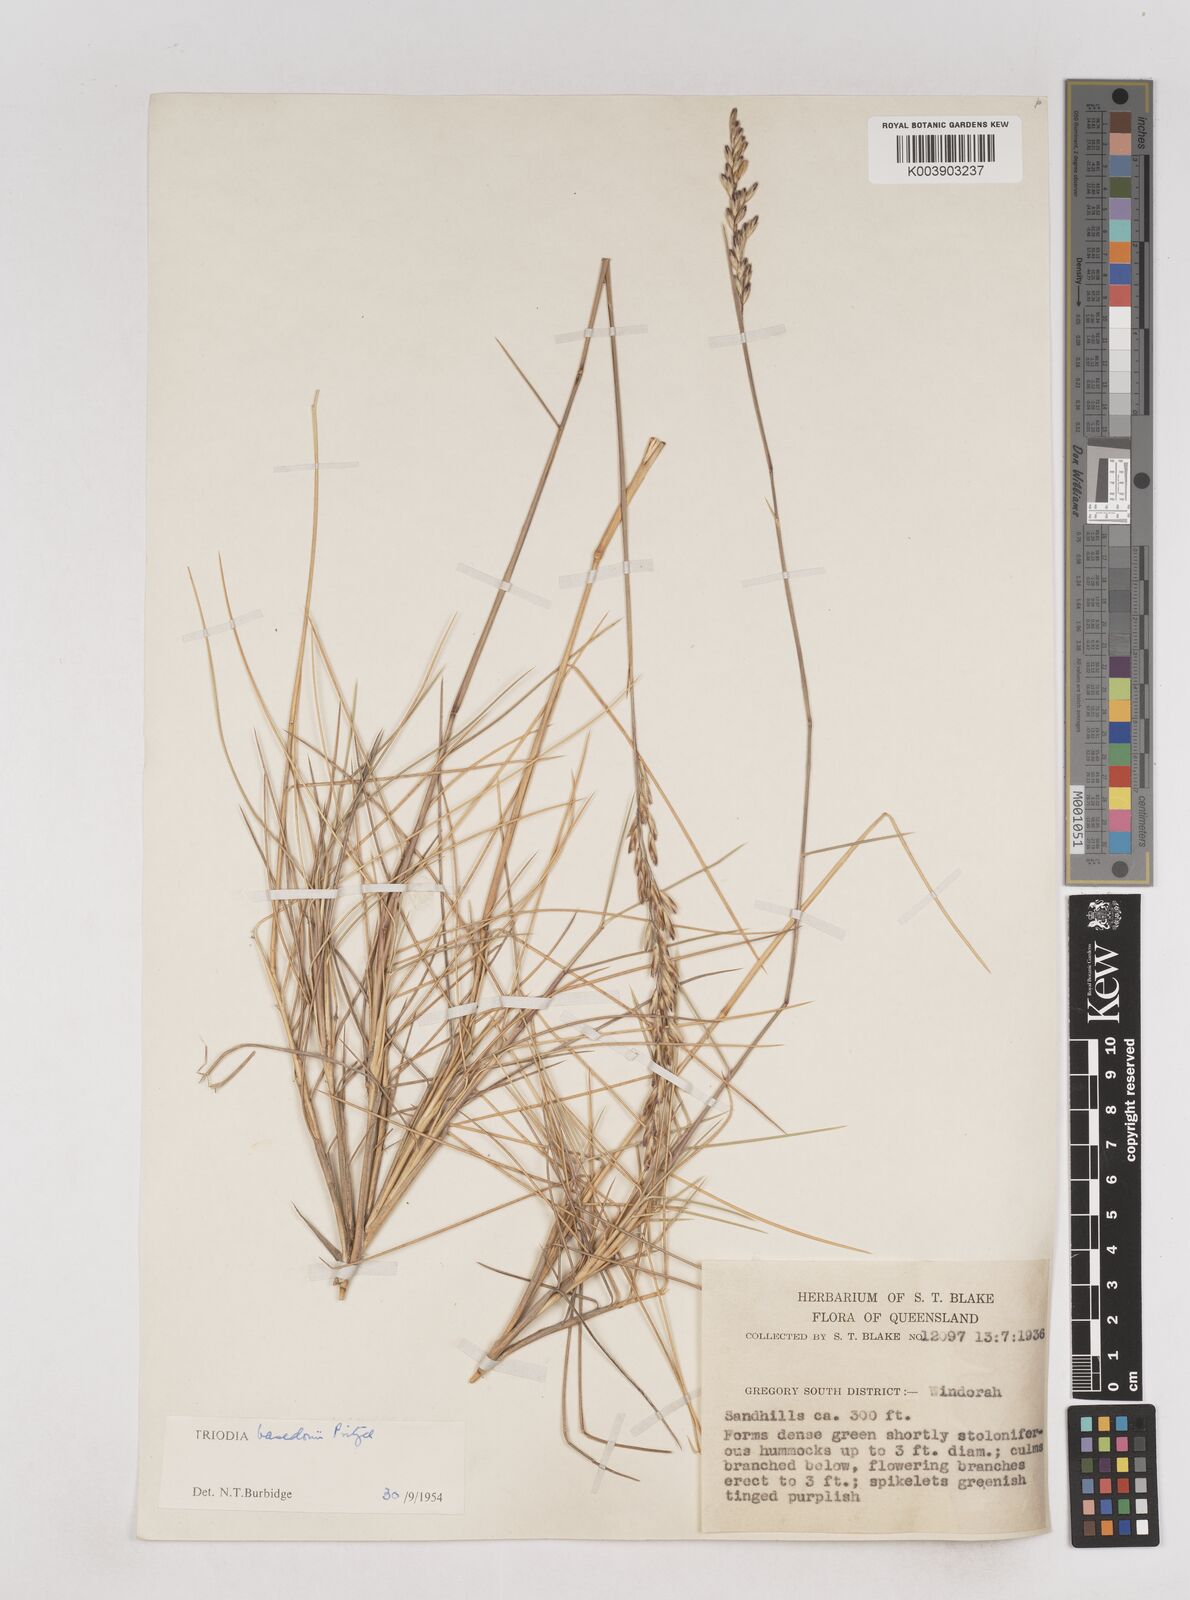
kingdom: Plantae
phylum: Tracheophyta
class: Liliopsida
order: Poales
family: Poaceae
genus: Triodia
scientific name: Triodia basedowii
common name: Hard spinifex
